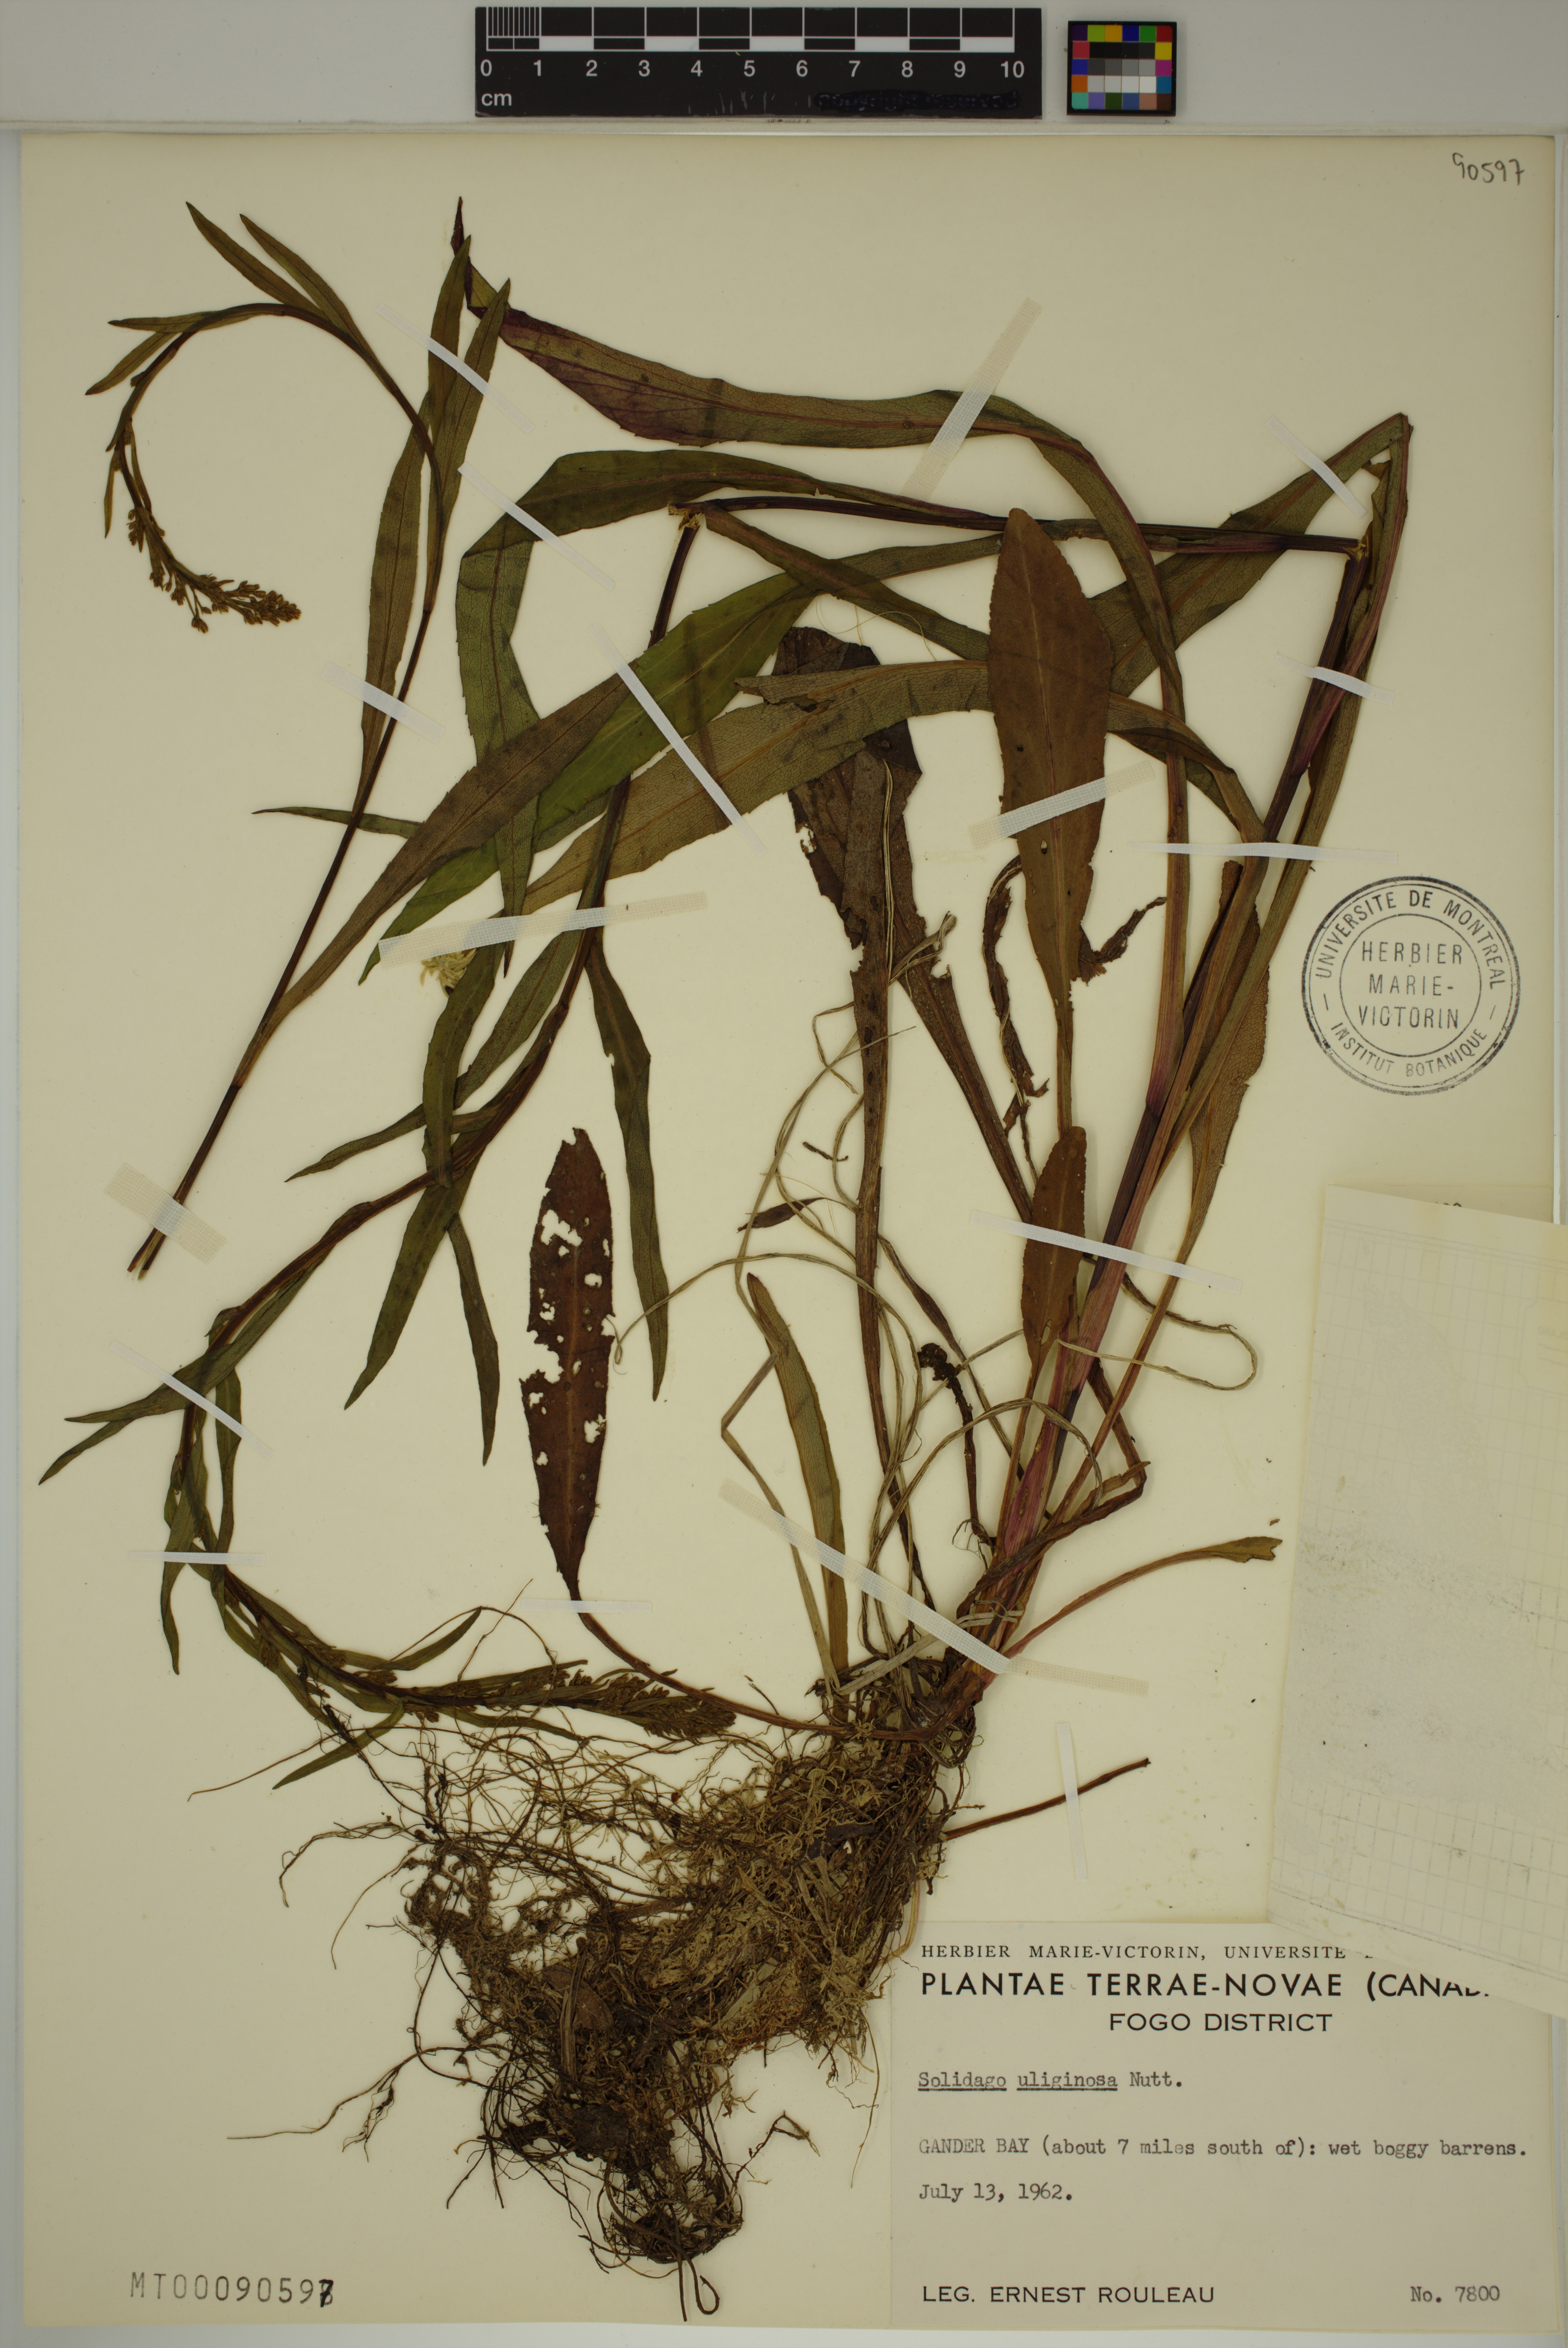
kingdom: Plantae
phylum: Tracheophyta
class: Magnoliopsida
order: Asterales
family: Asteraceae
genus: Solidago
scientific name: Solidago uliginosa
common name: Bog goldenrod
